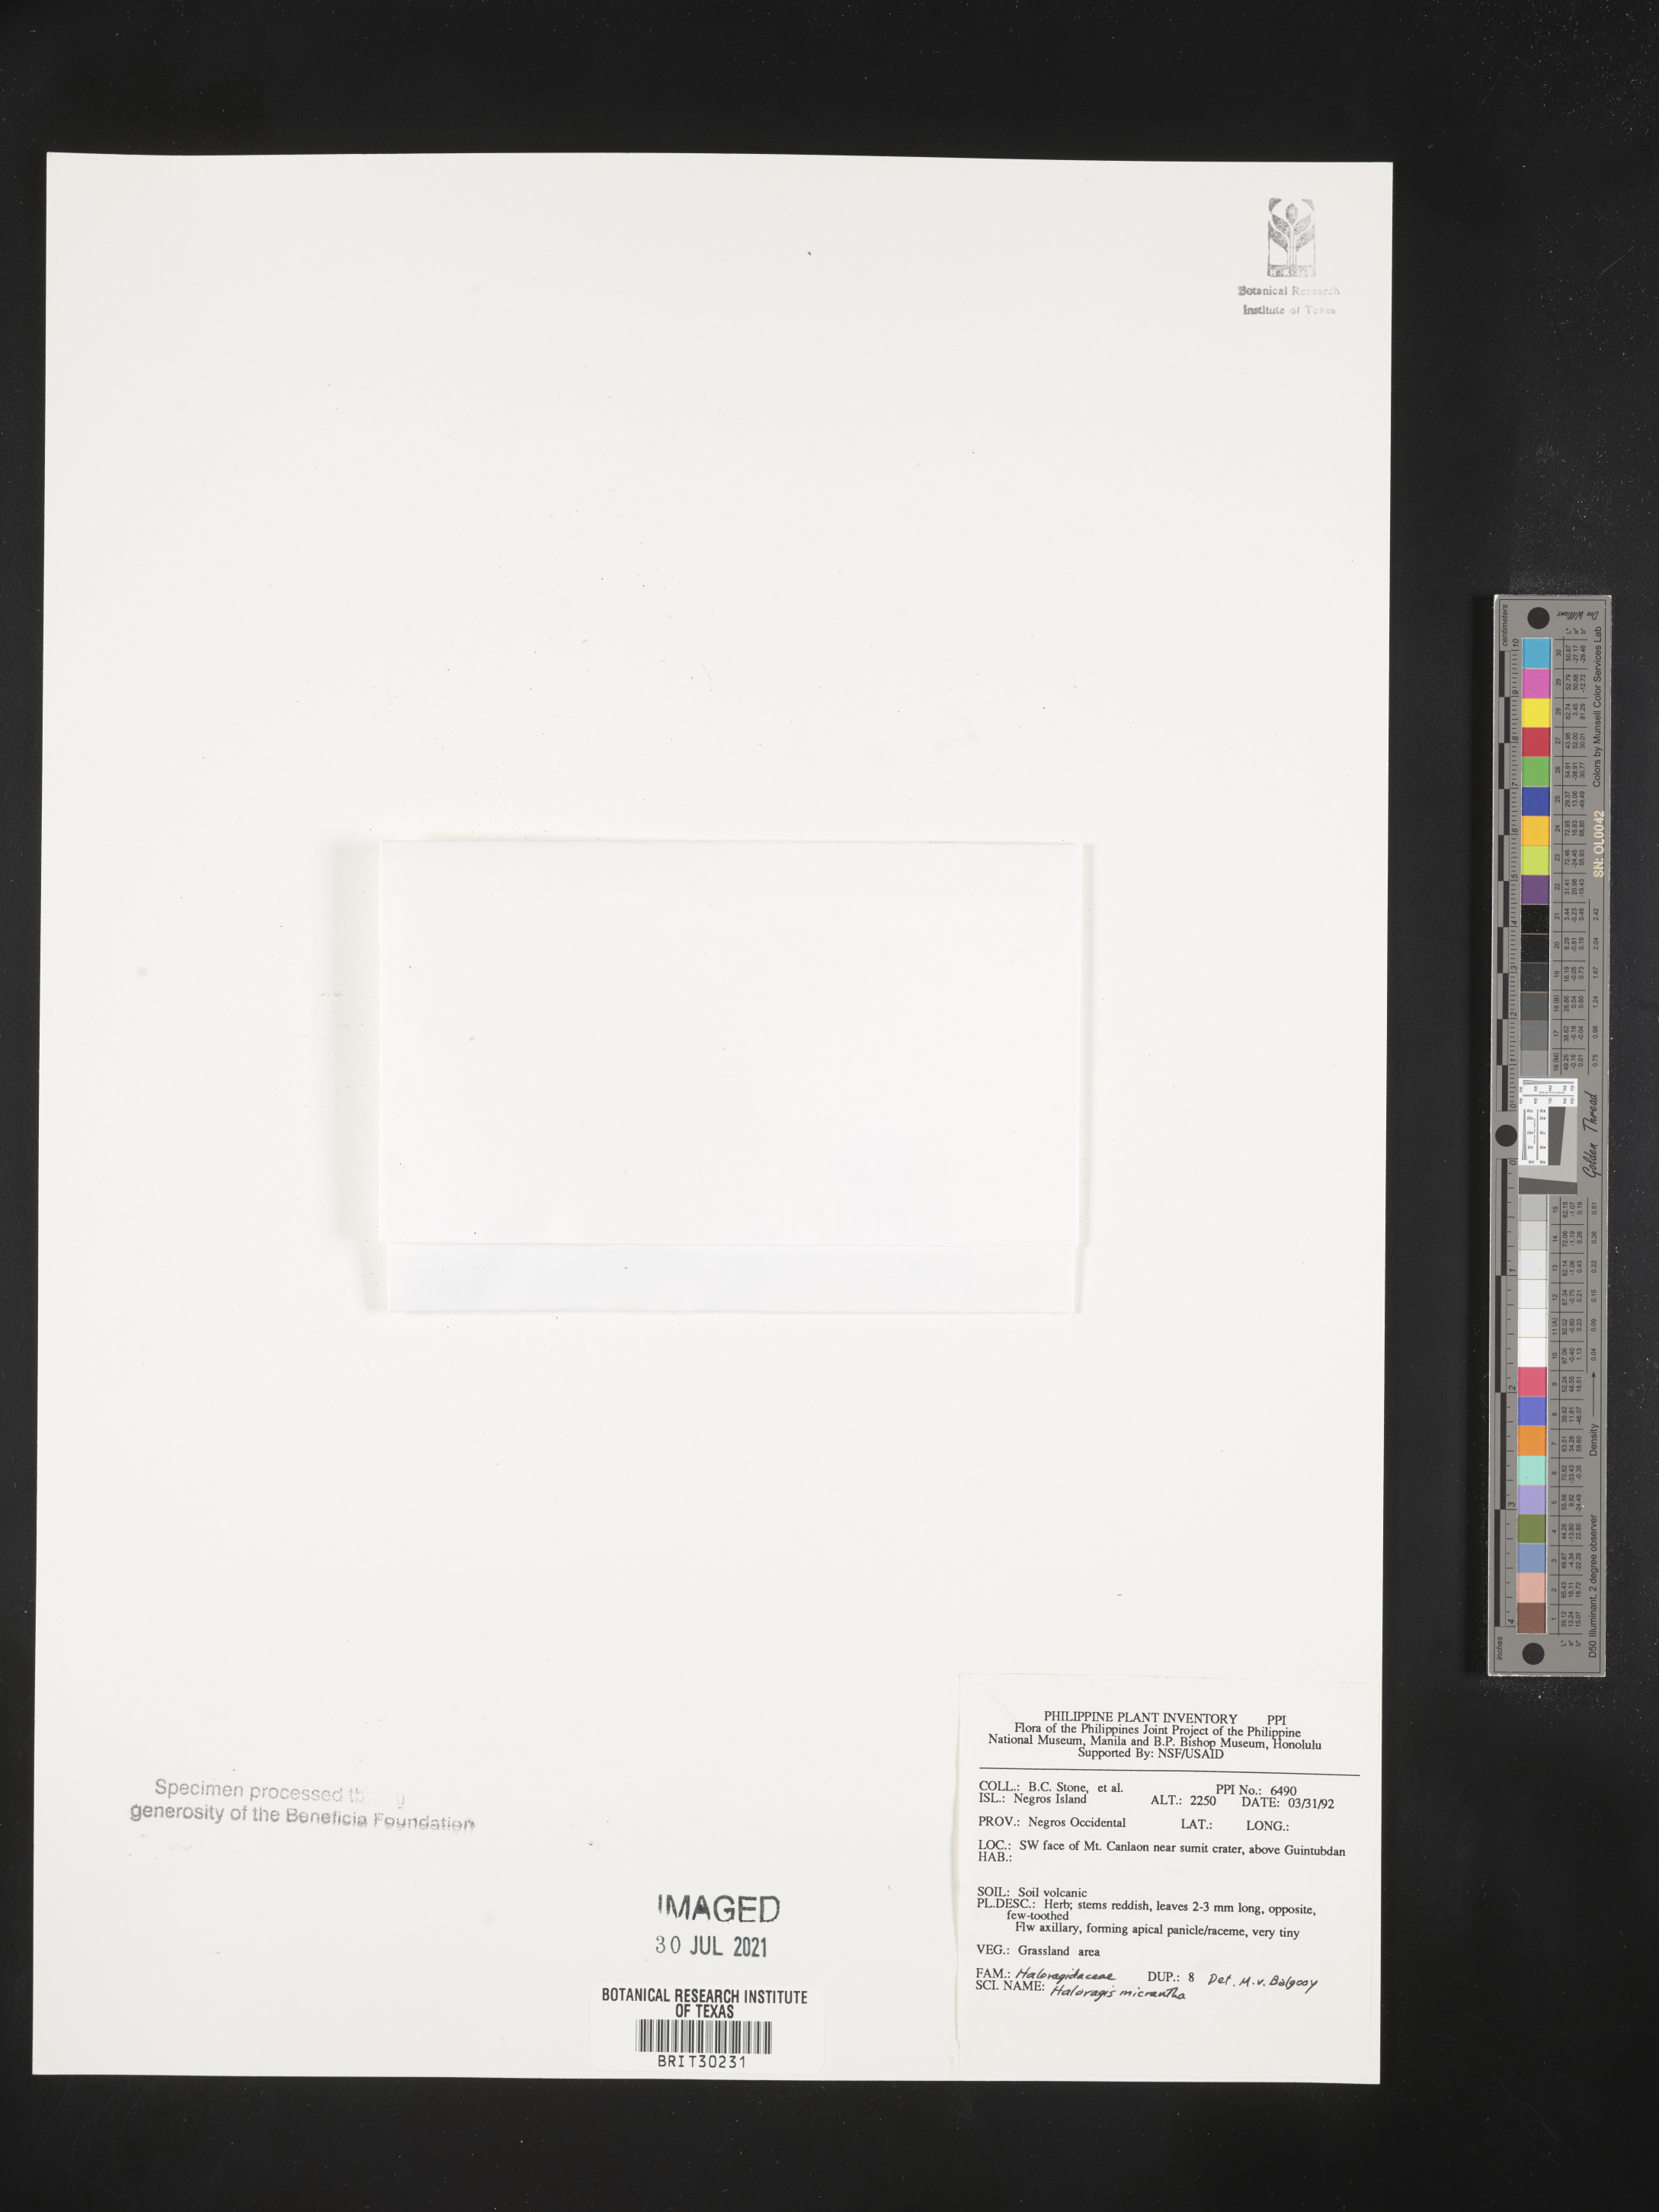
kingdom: Plantae
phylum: Tracheophyta
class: Magnoliopsida
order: Saxifragales
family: Haloragaceae
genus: Gonocarpus
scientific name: Gonocarpus micranthus
